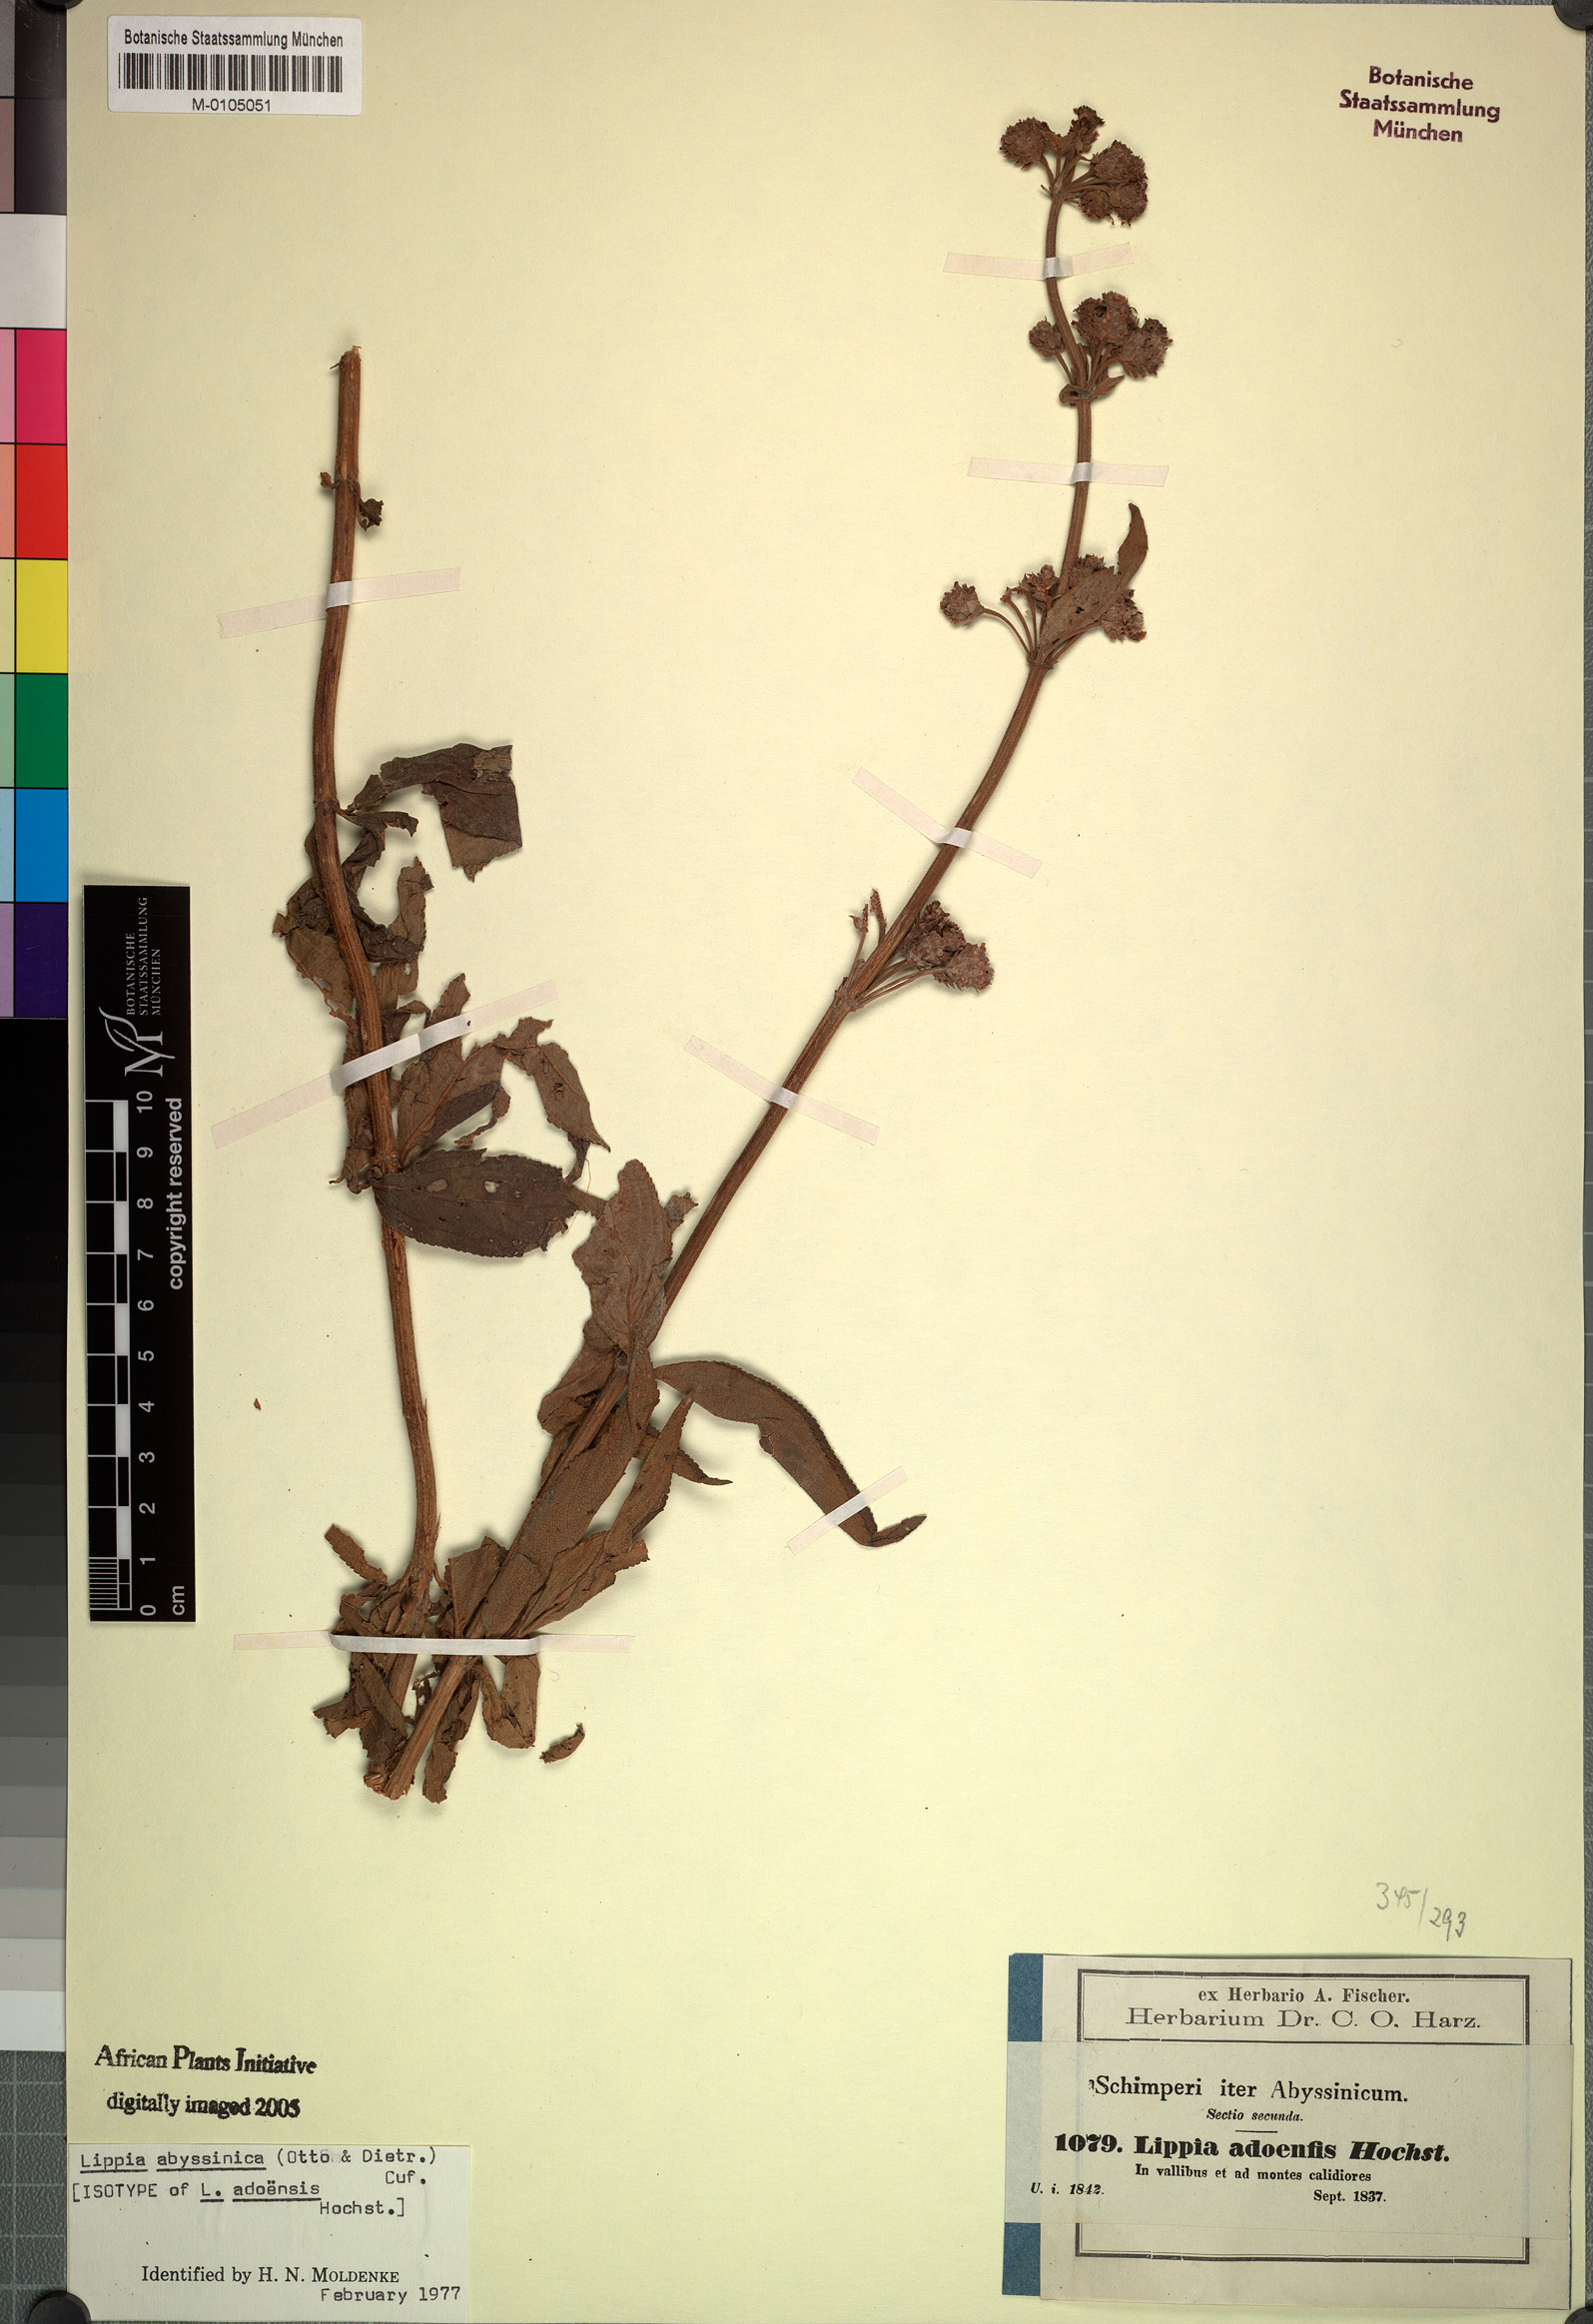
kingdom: Plantae
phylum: Tracheophyta
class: Magnoliopsida
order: Lamiales
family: Verbenaceae
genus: Lippia
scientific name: Lippia abyssinica
